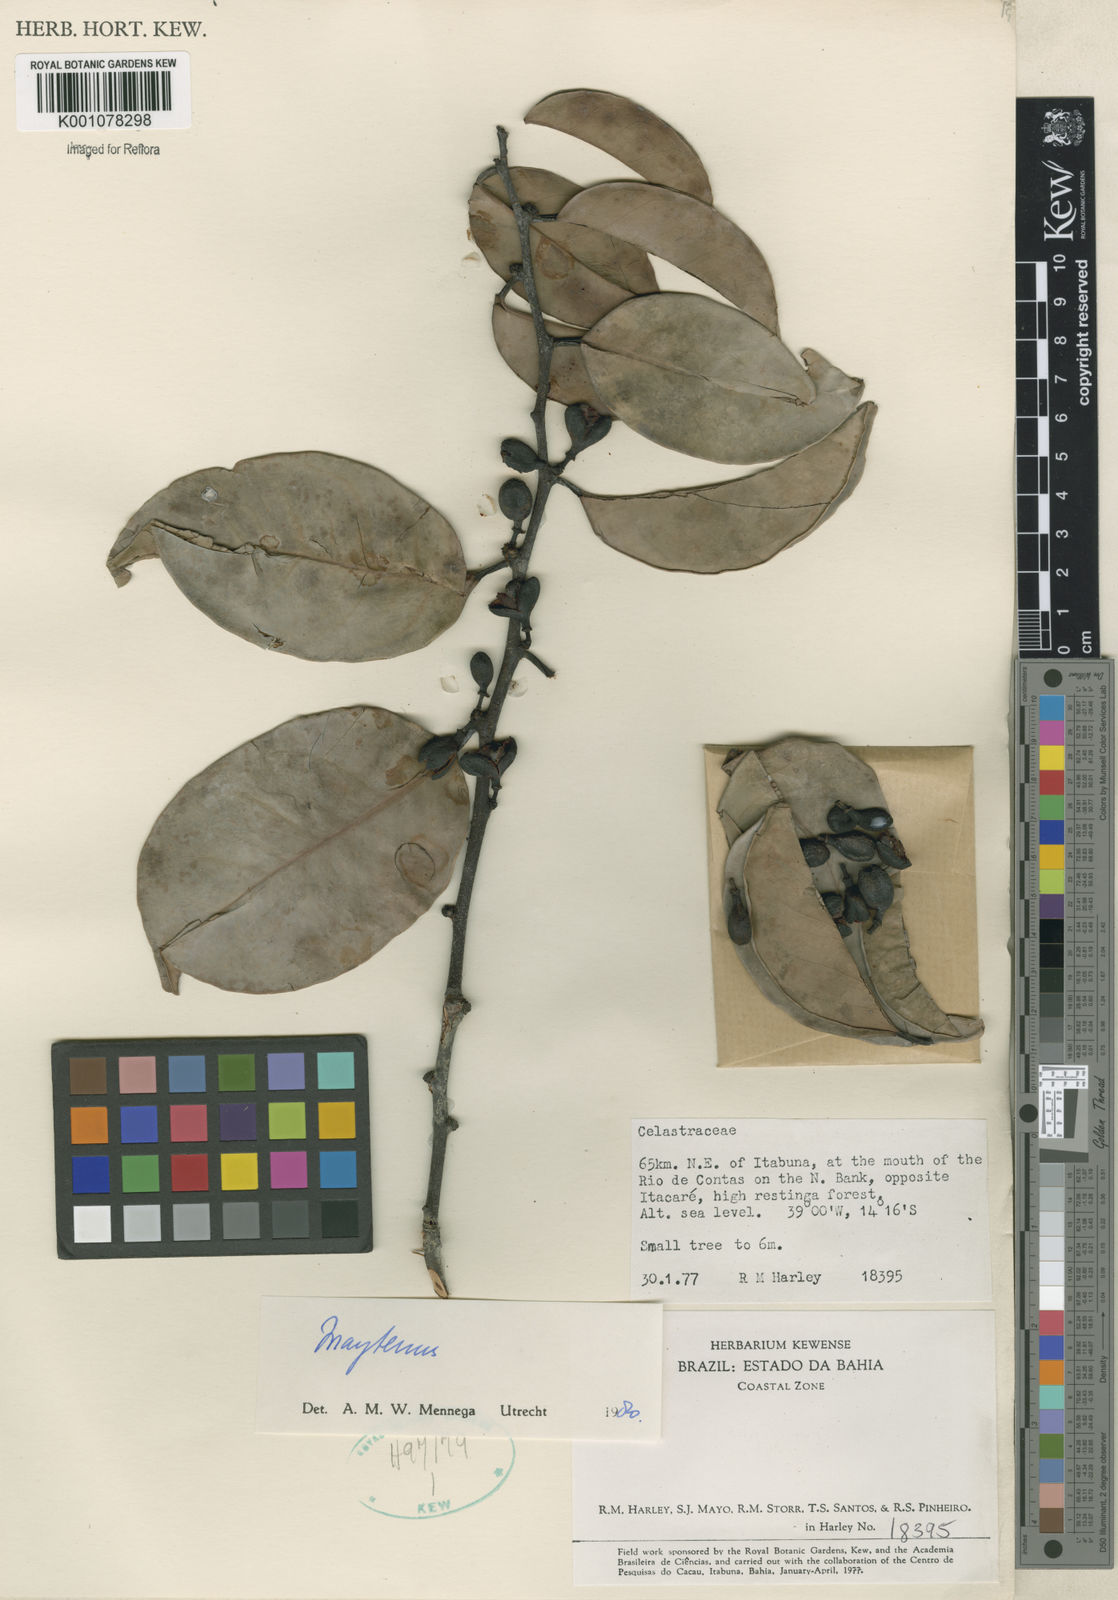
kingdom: Plantae
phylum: Tracheophyta
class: Magnoliopsida
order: Celastrales
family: Celastraceae
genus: Maytenus
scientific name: Maytenus
